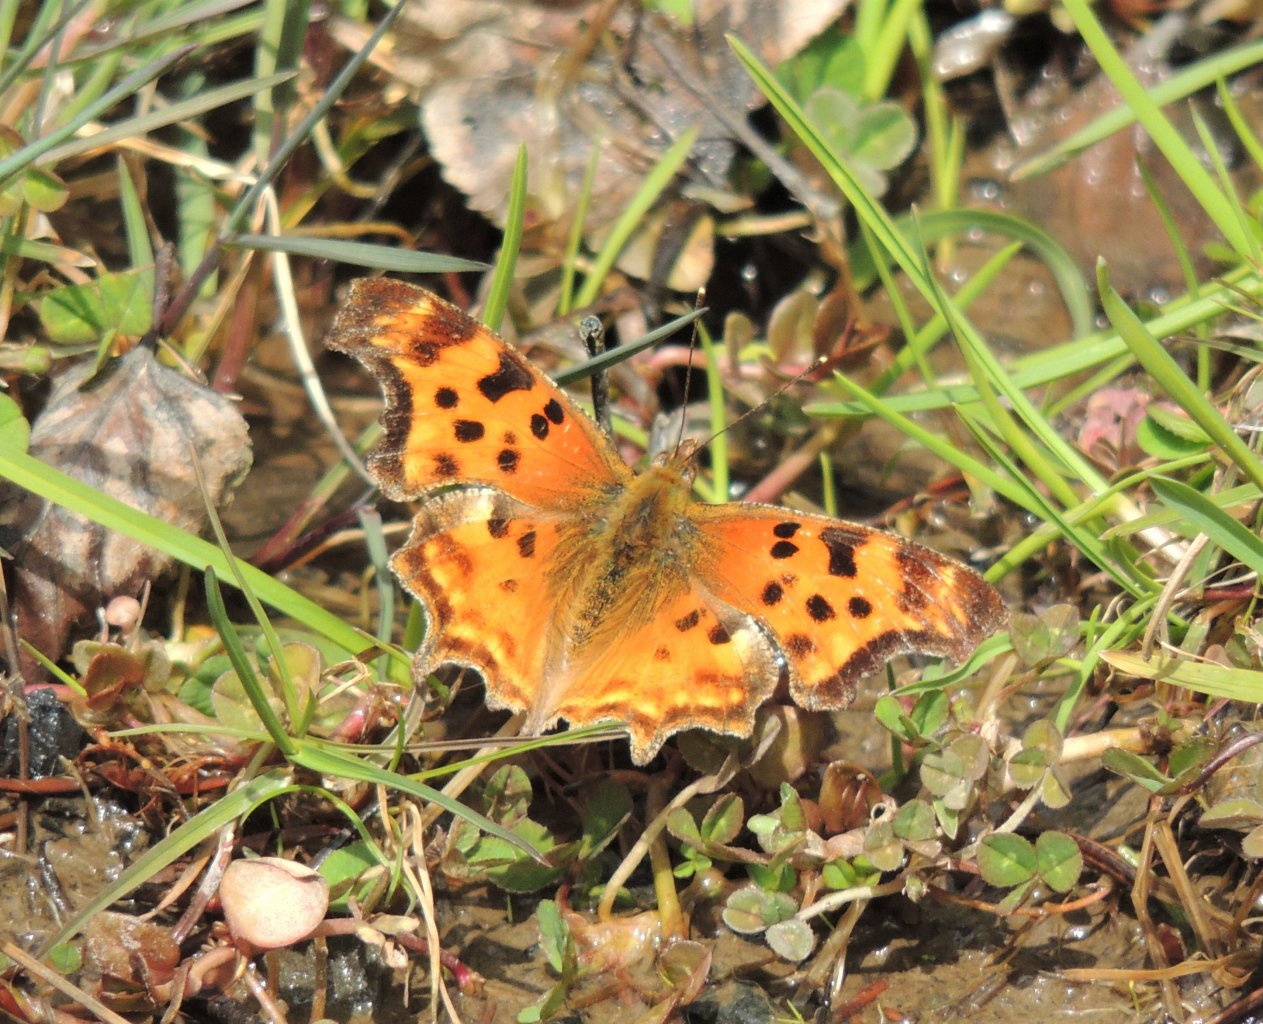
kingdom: Animalia
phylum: Arthropoda
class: Insecta
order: Lepidoptera
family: Nymphalidae
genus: Polygonia
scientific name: Polygonia satyrus
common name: Satyr Comma
